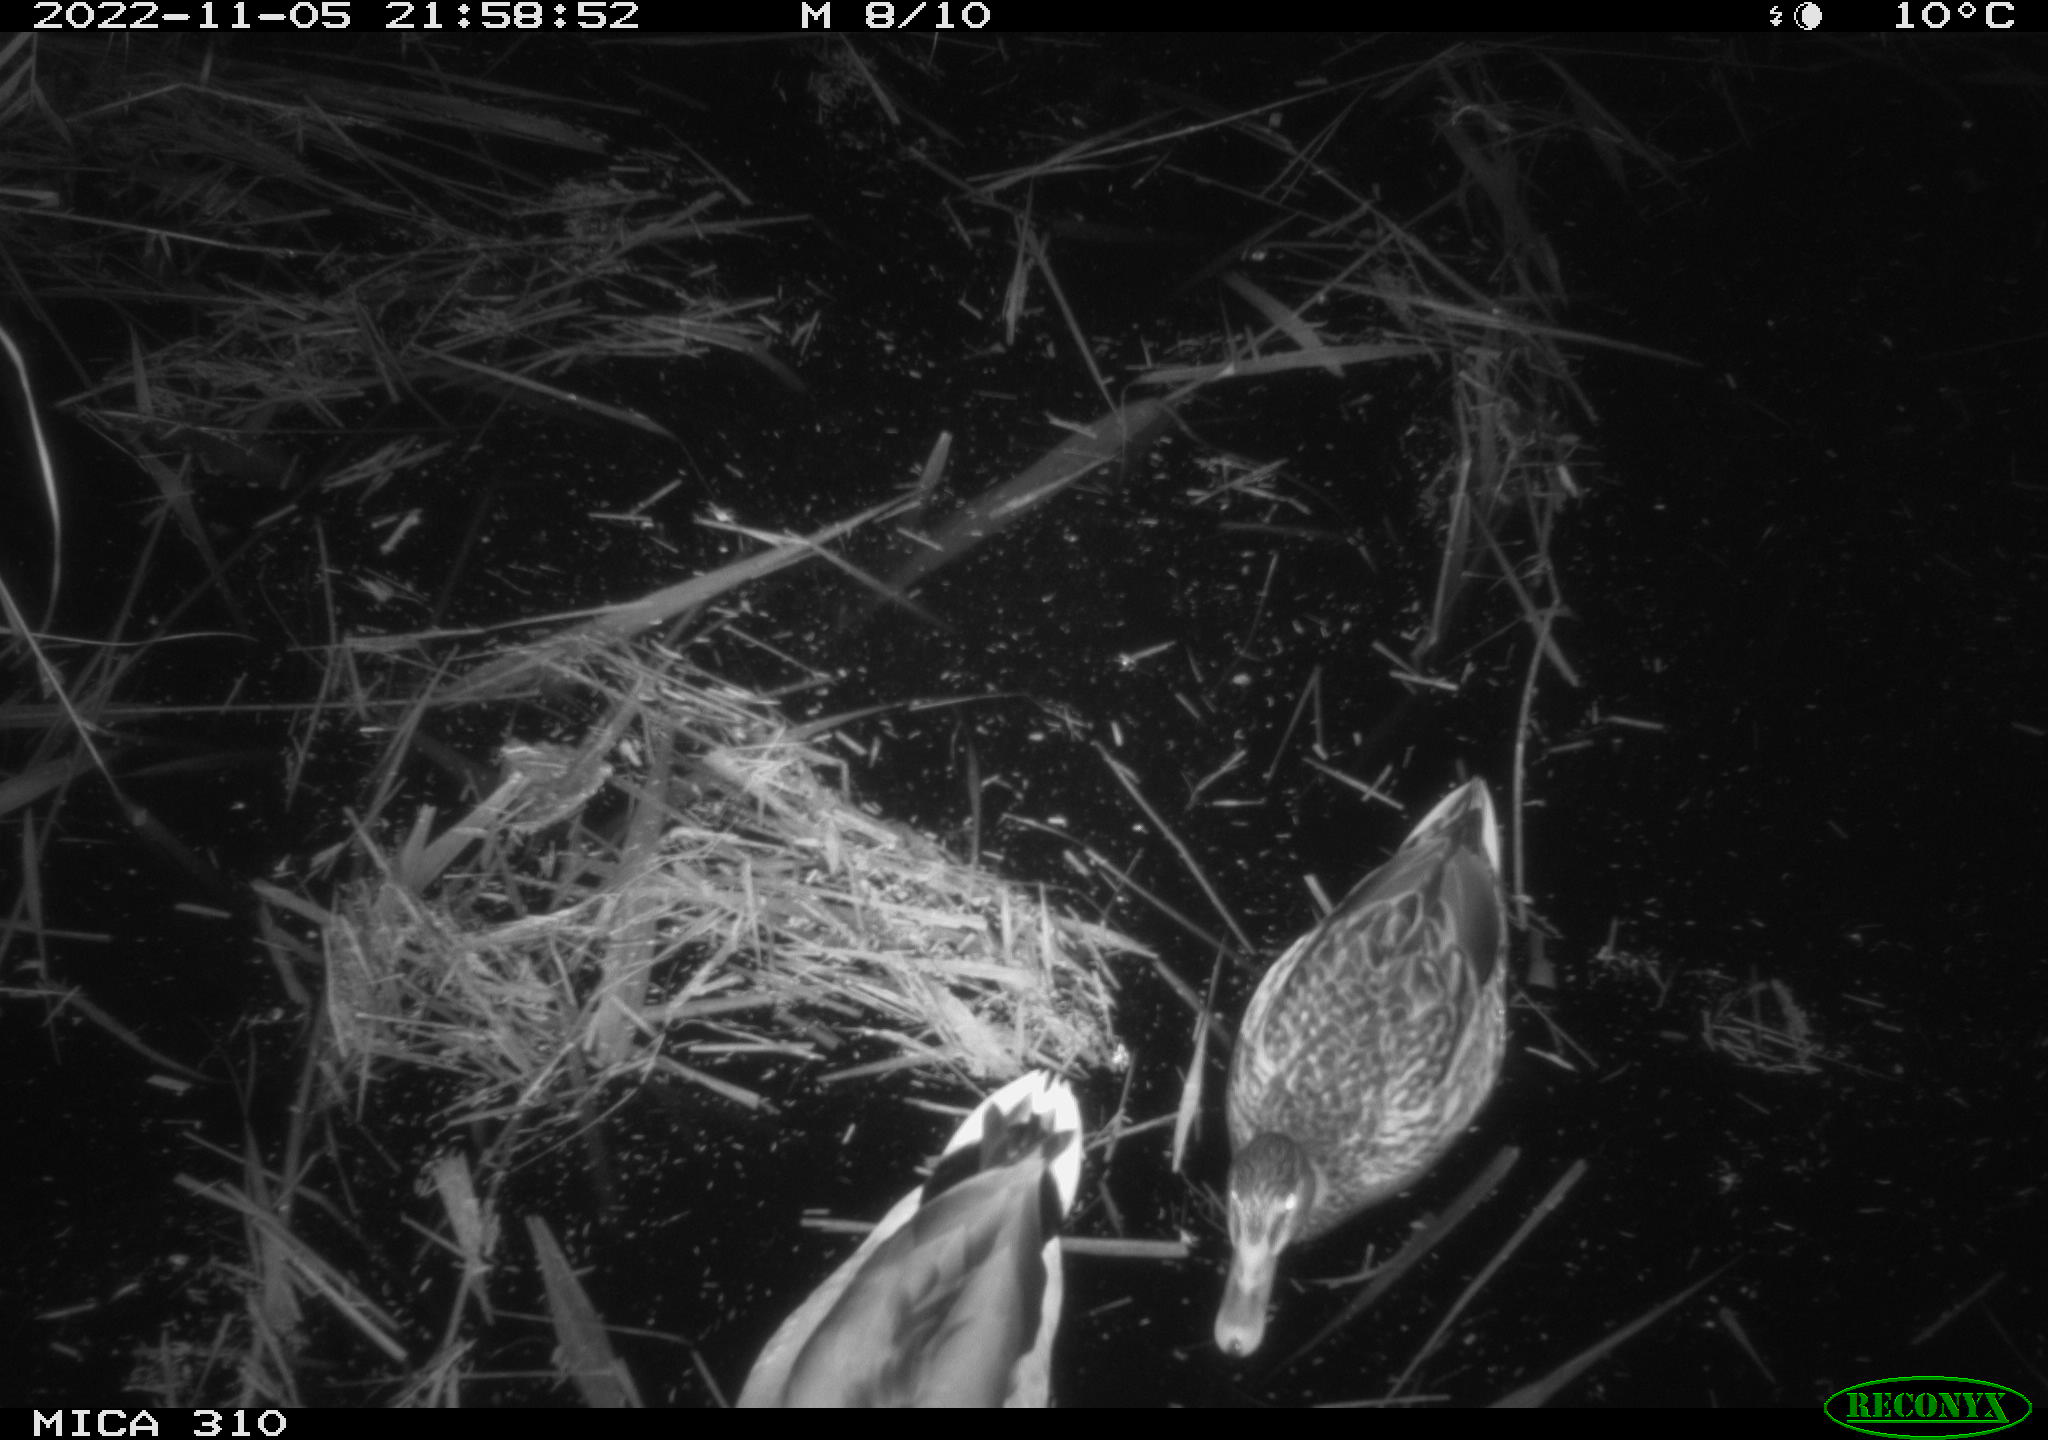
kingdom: Animalia
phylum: Chordata
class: Aves
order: Anseriformes
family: Anatidae
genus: Anas
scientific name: Anas
